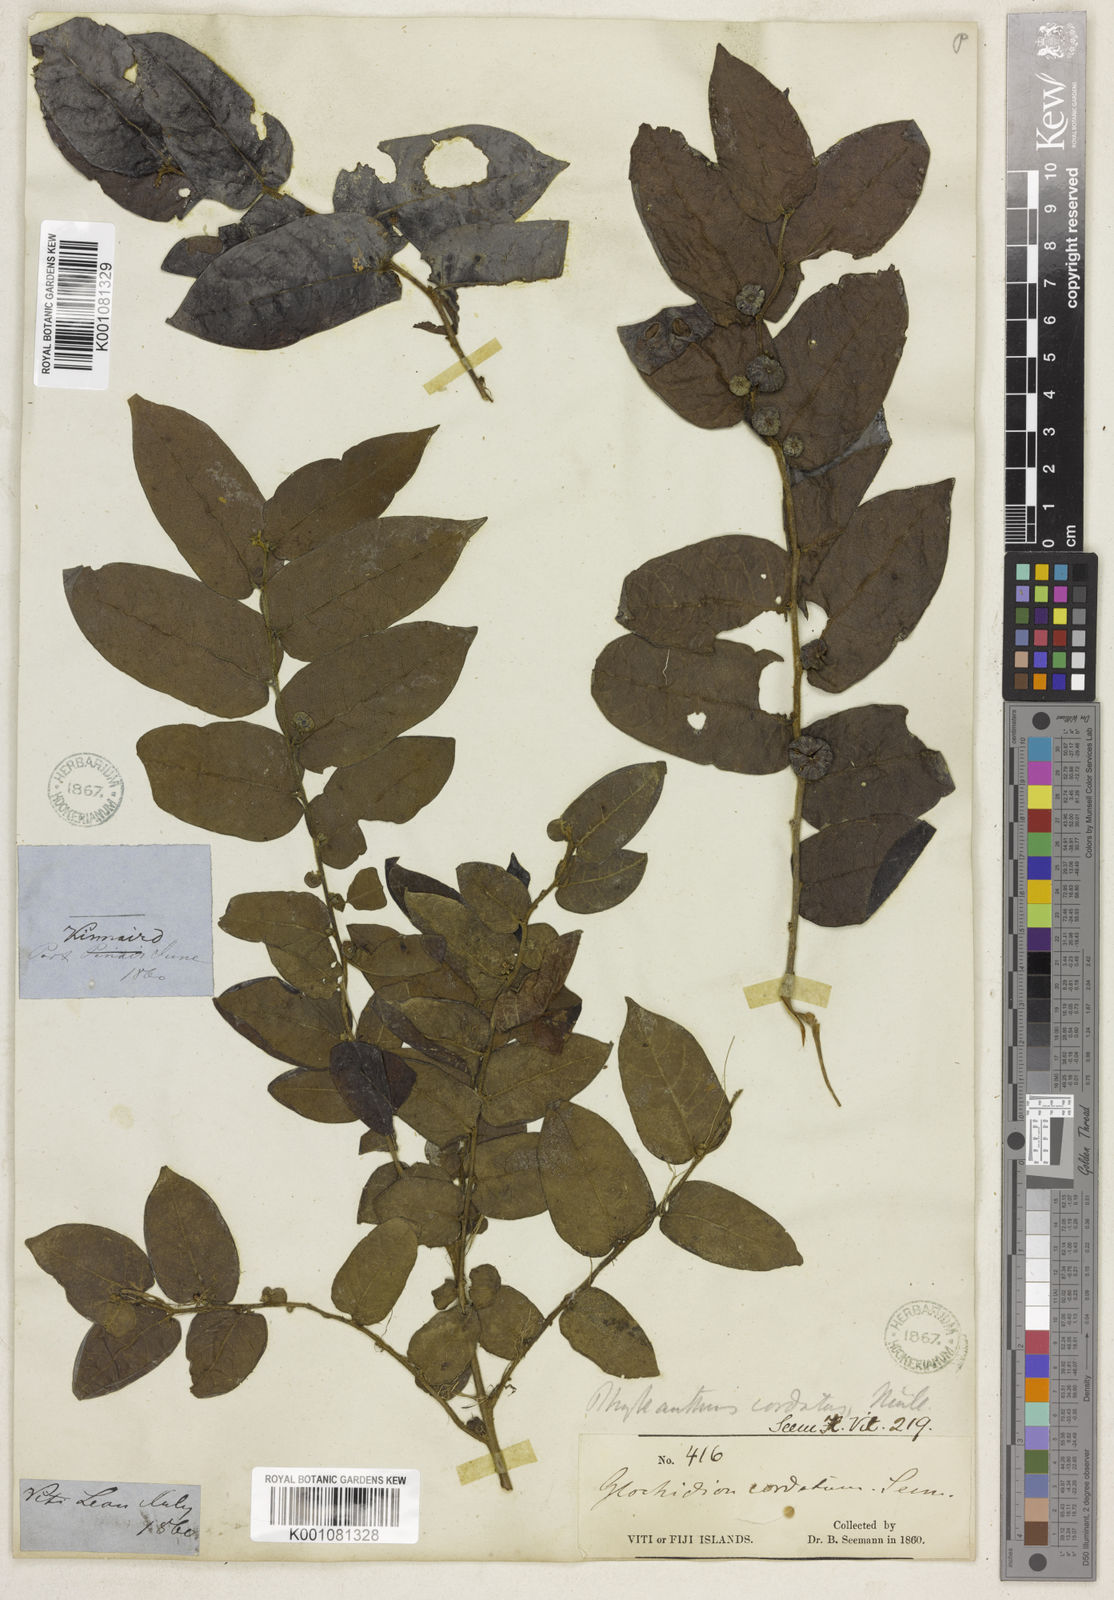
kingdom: Plantae
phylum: Tracheophyta
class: Magnoliopsida
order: Malpighiales
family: Phyllanthaceae
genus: Glochidion
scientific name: Glochidion
